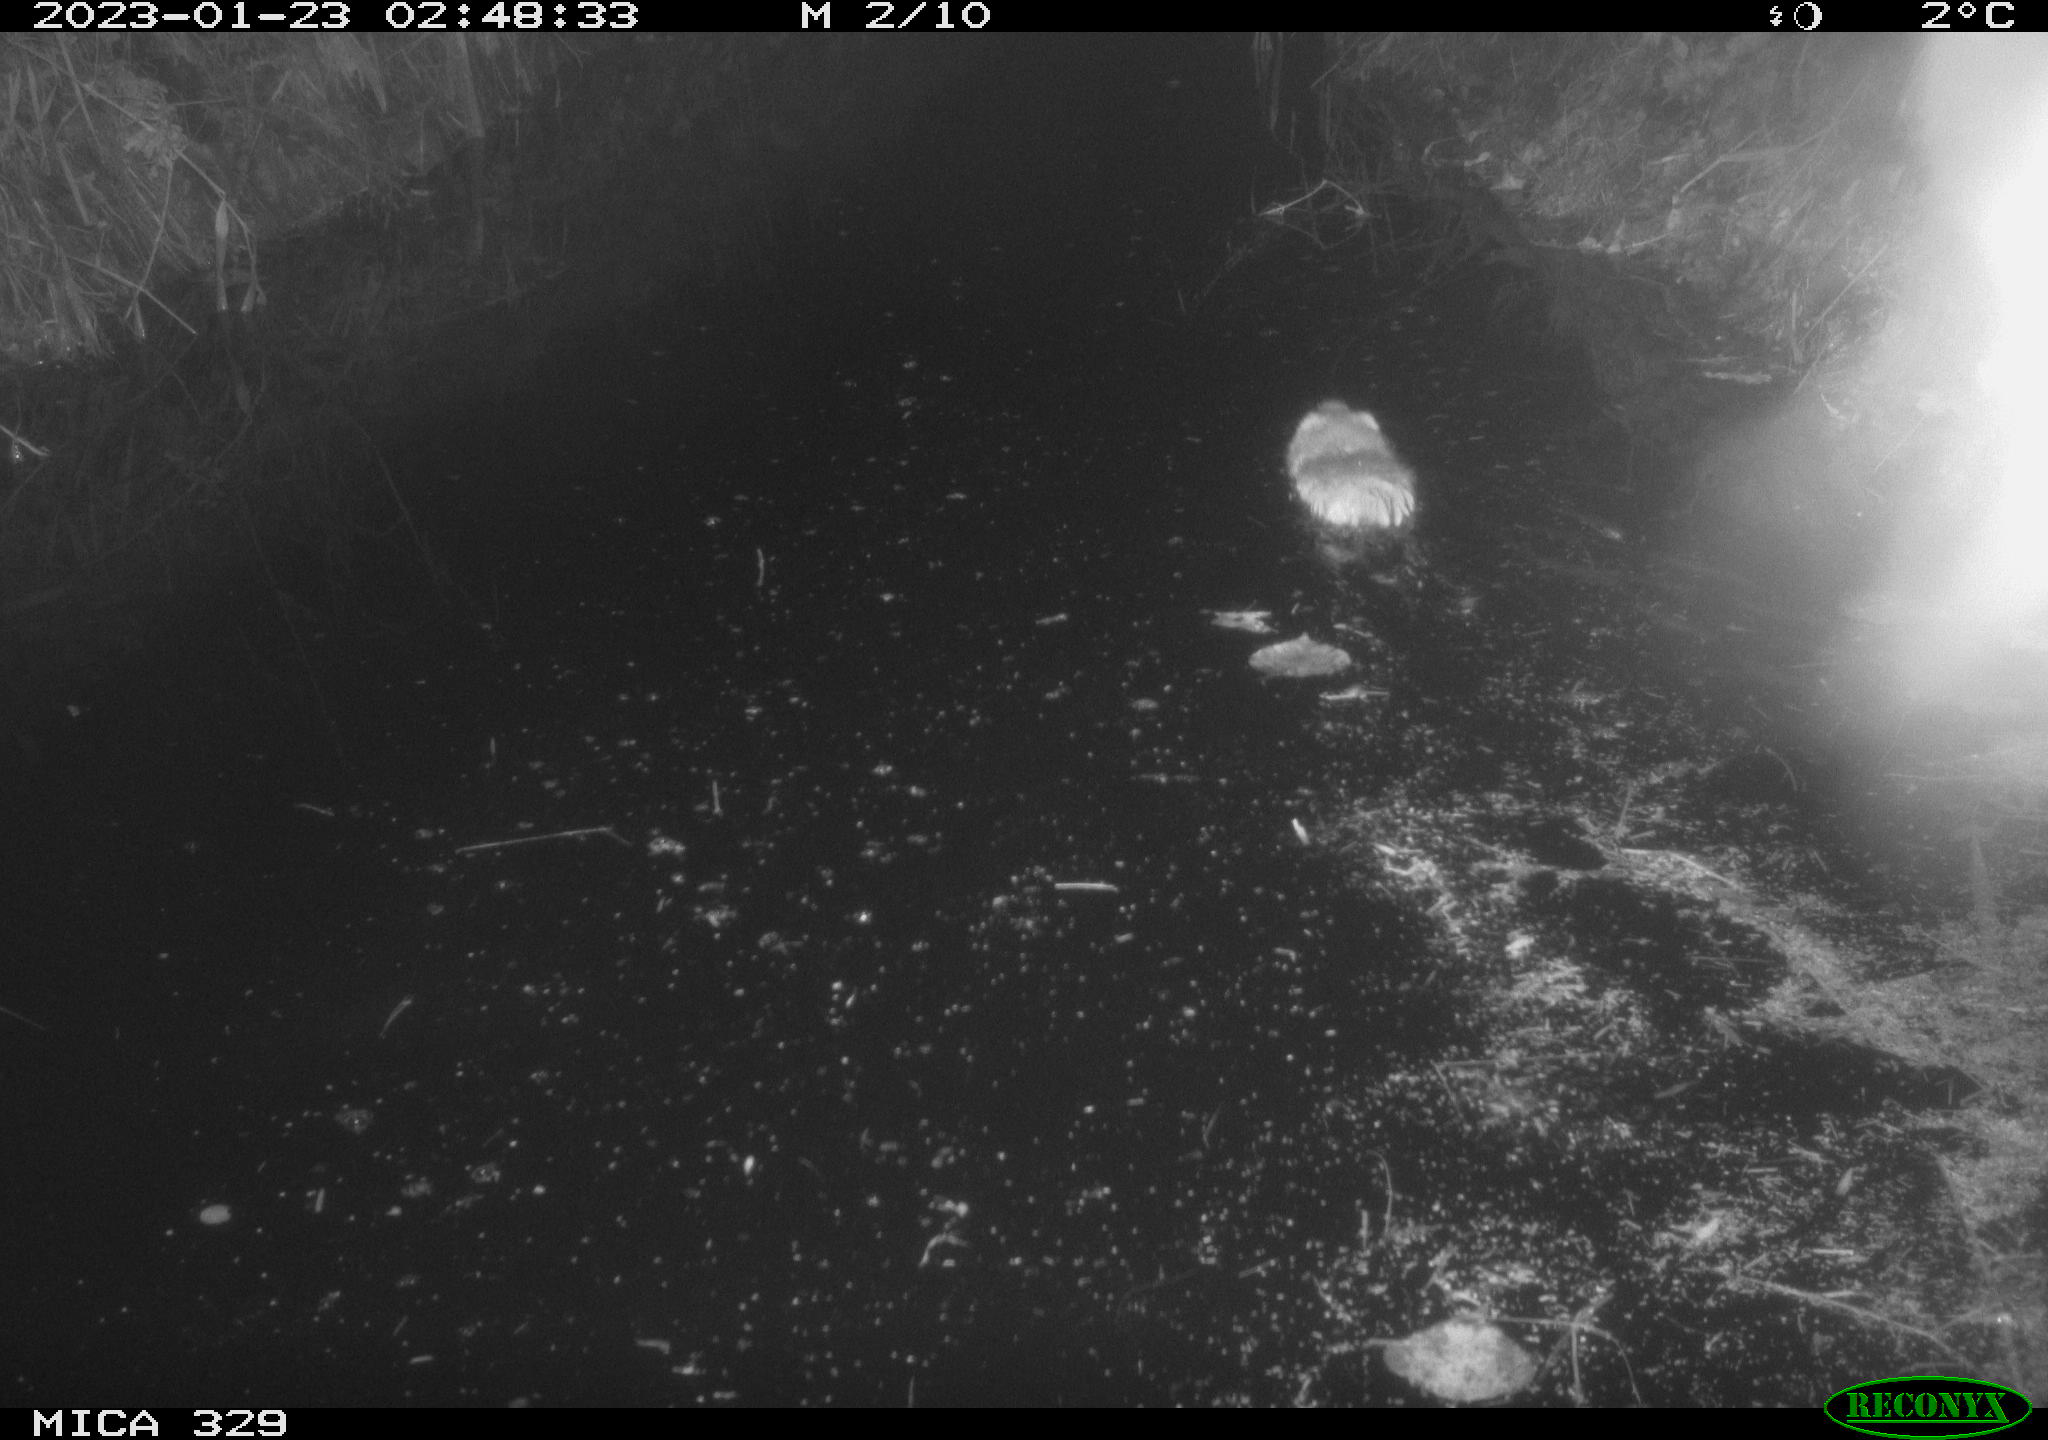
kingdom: Animalia
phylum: Chordata
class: Mammalia
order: Rodentia
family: Cricetidae
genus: Ondatra
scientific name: Ondatra zibethicus
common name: Muskrat
